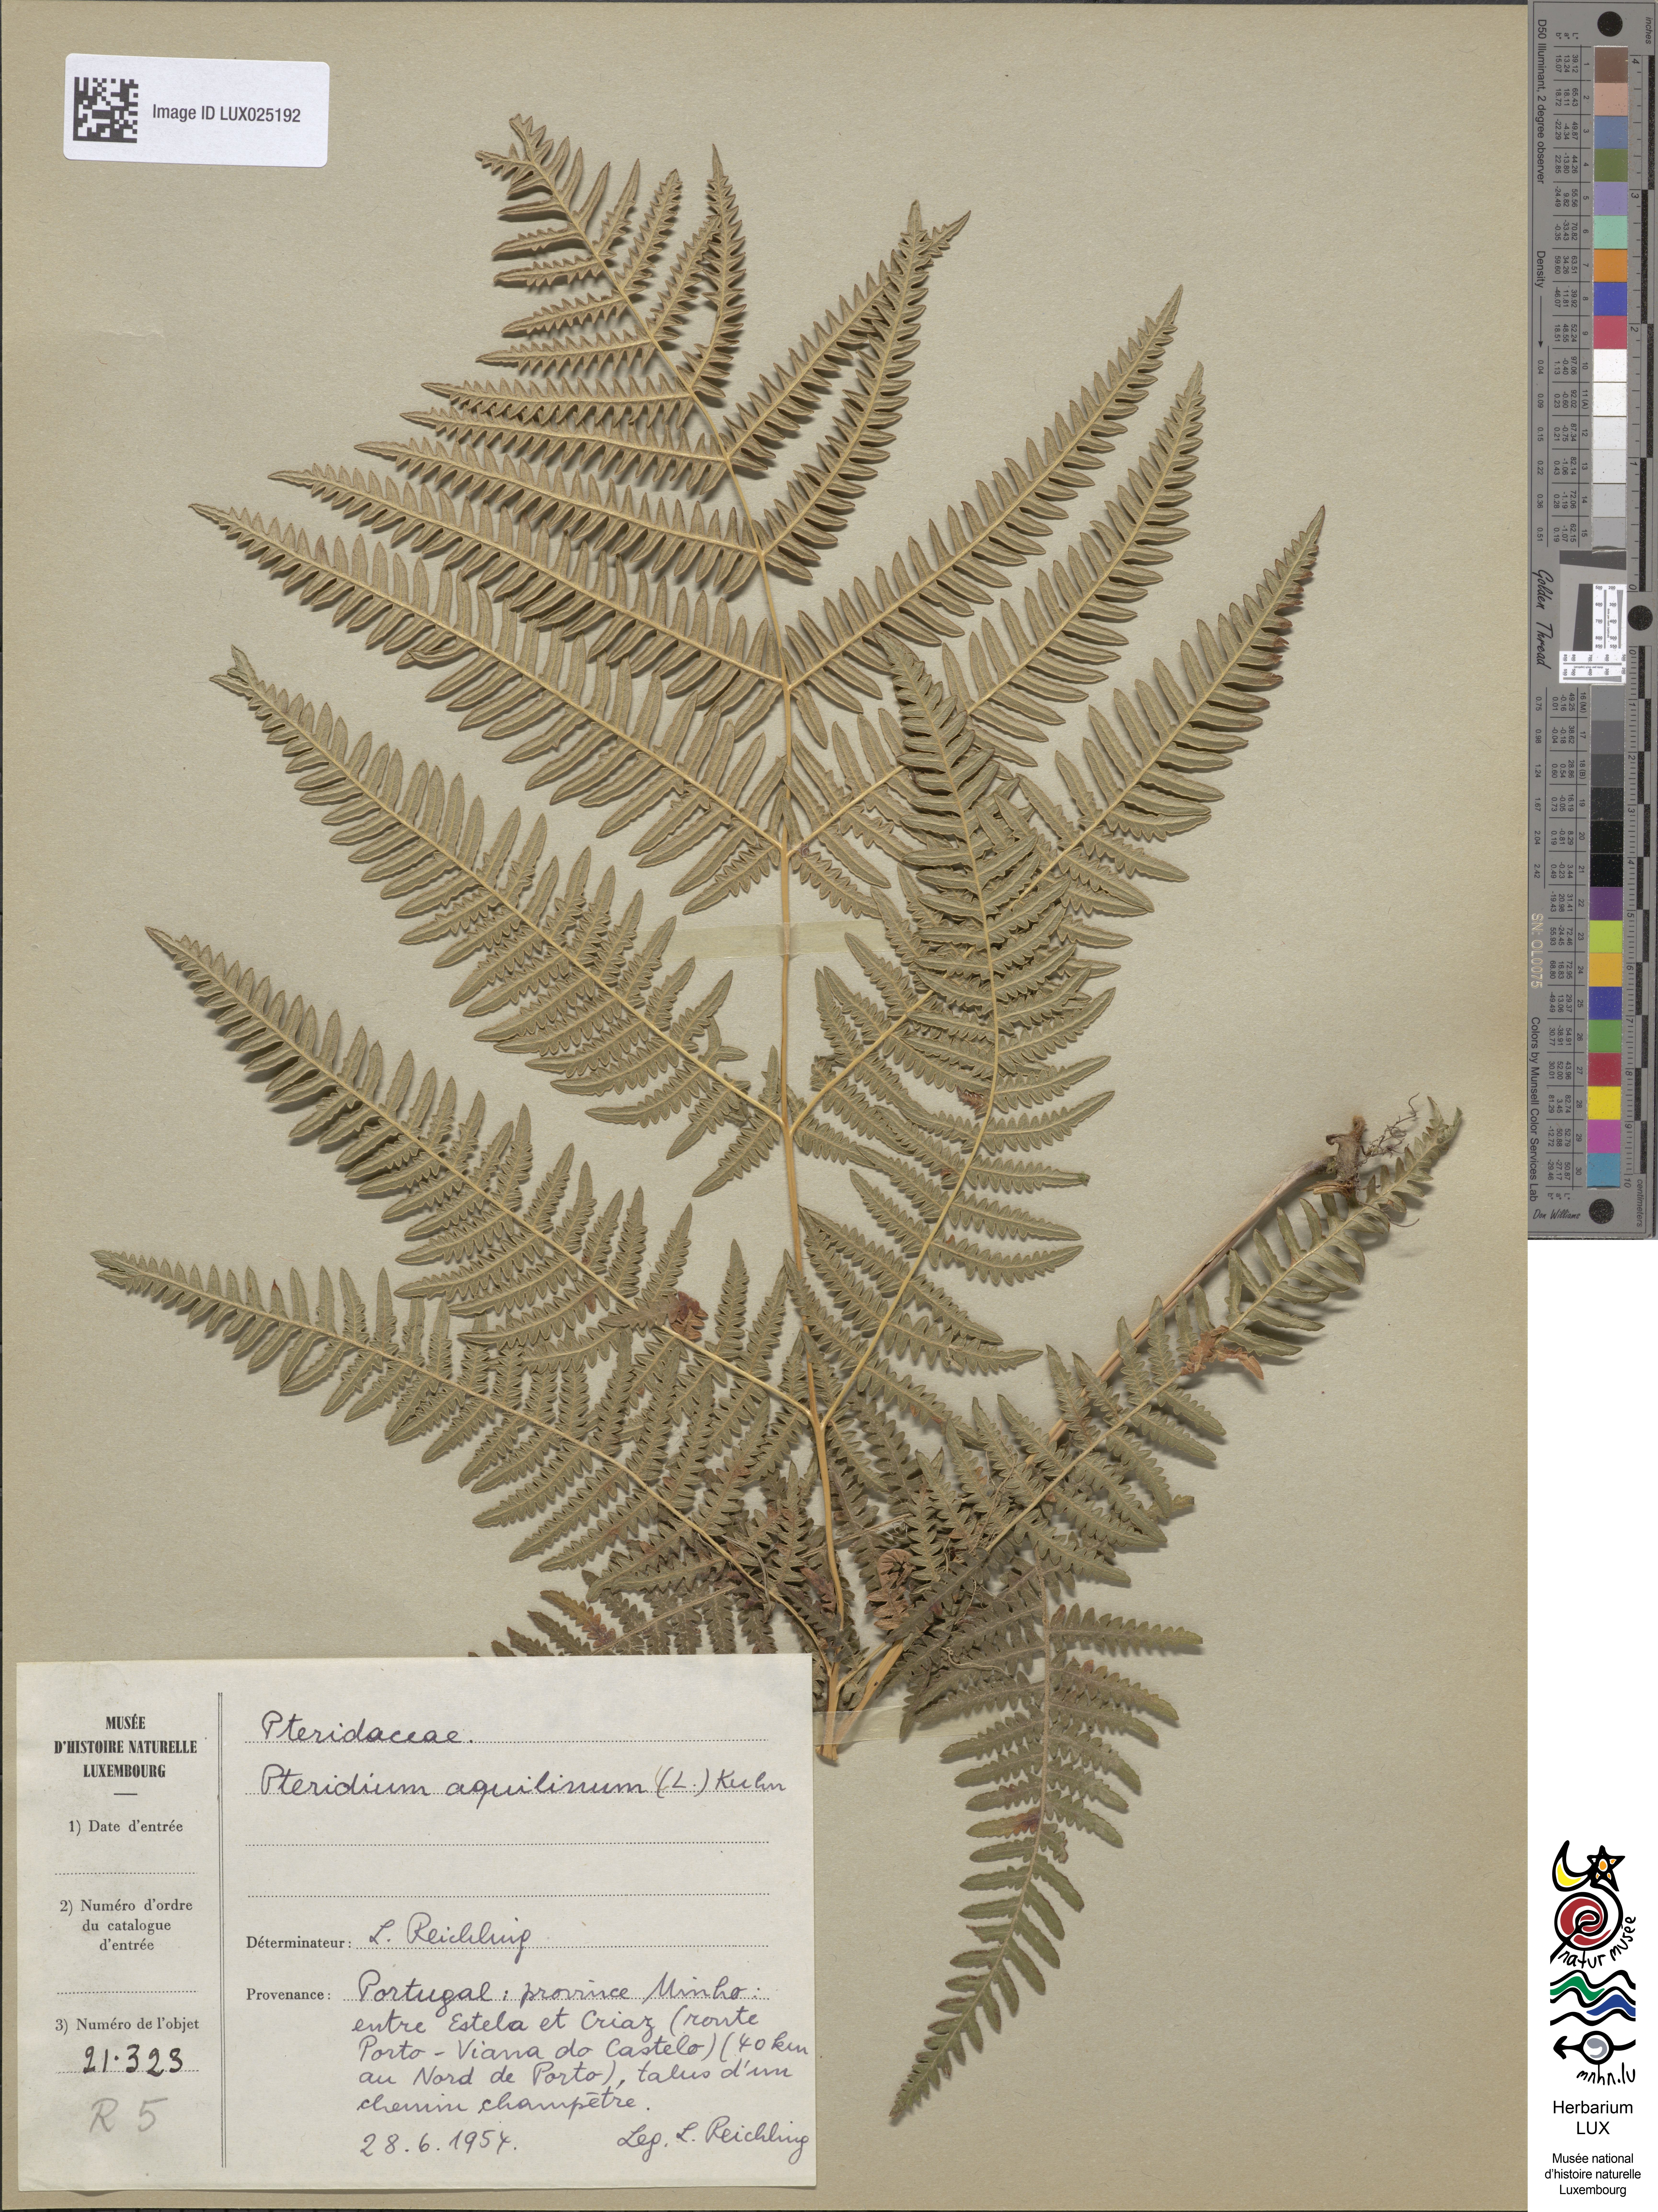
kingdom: Plantae
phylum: Tracheophyta
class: Polypodiopsida
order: Polypodiales
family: Dennstaedtiaceae
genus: Pteridium
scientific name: Pteridium aquilinum
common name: Bracken
